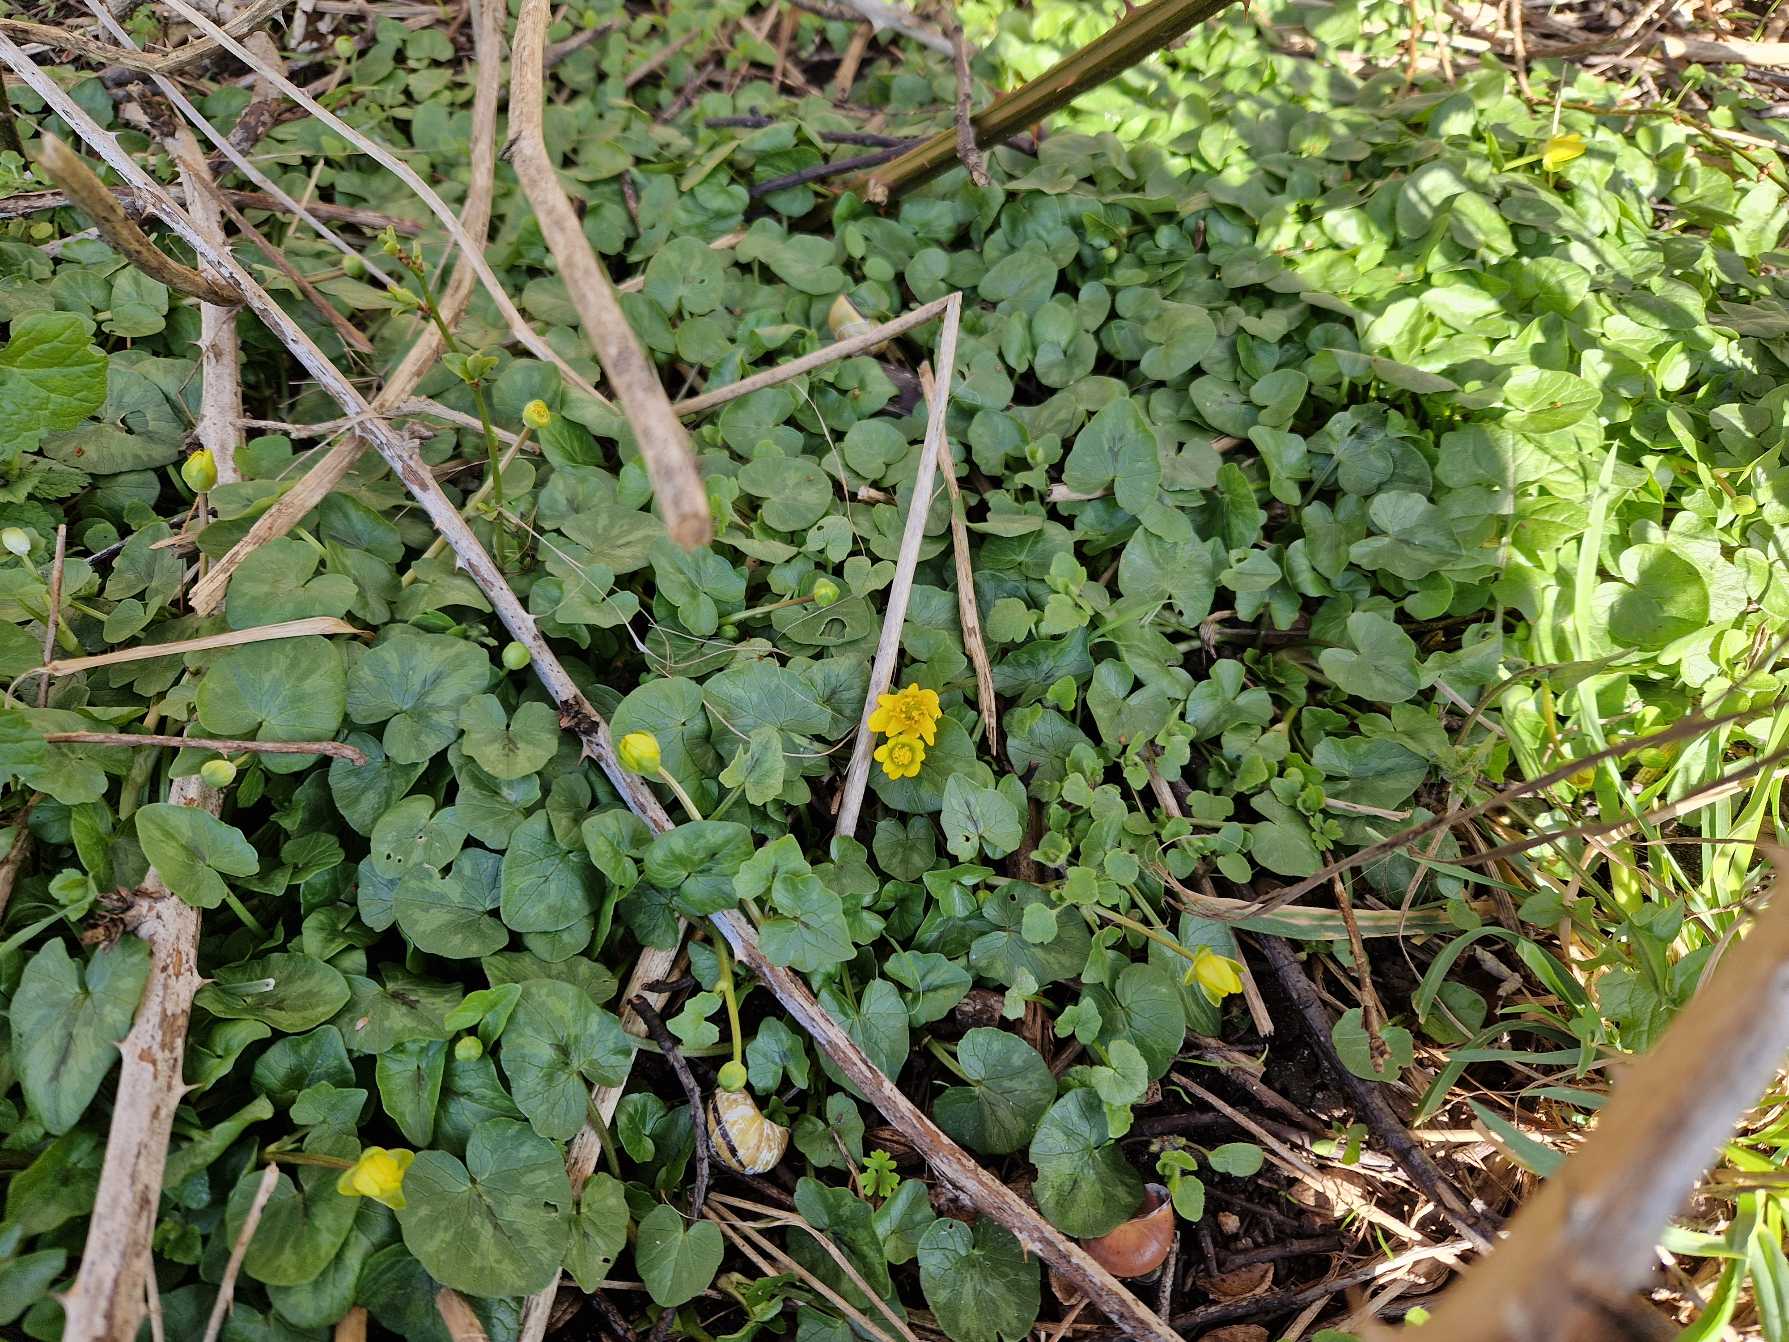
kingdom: Plantae
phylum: Tracheophyta
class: Magnoliopsida
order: Ranunculales
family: Ranunculaceae
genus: Ficaria
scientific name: Ficaria verna
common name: Vorterod
